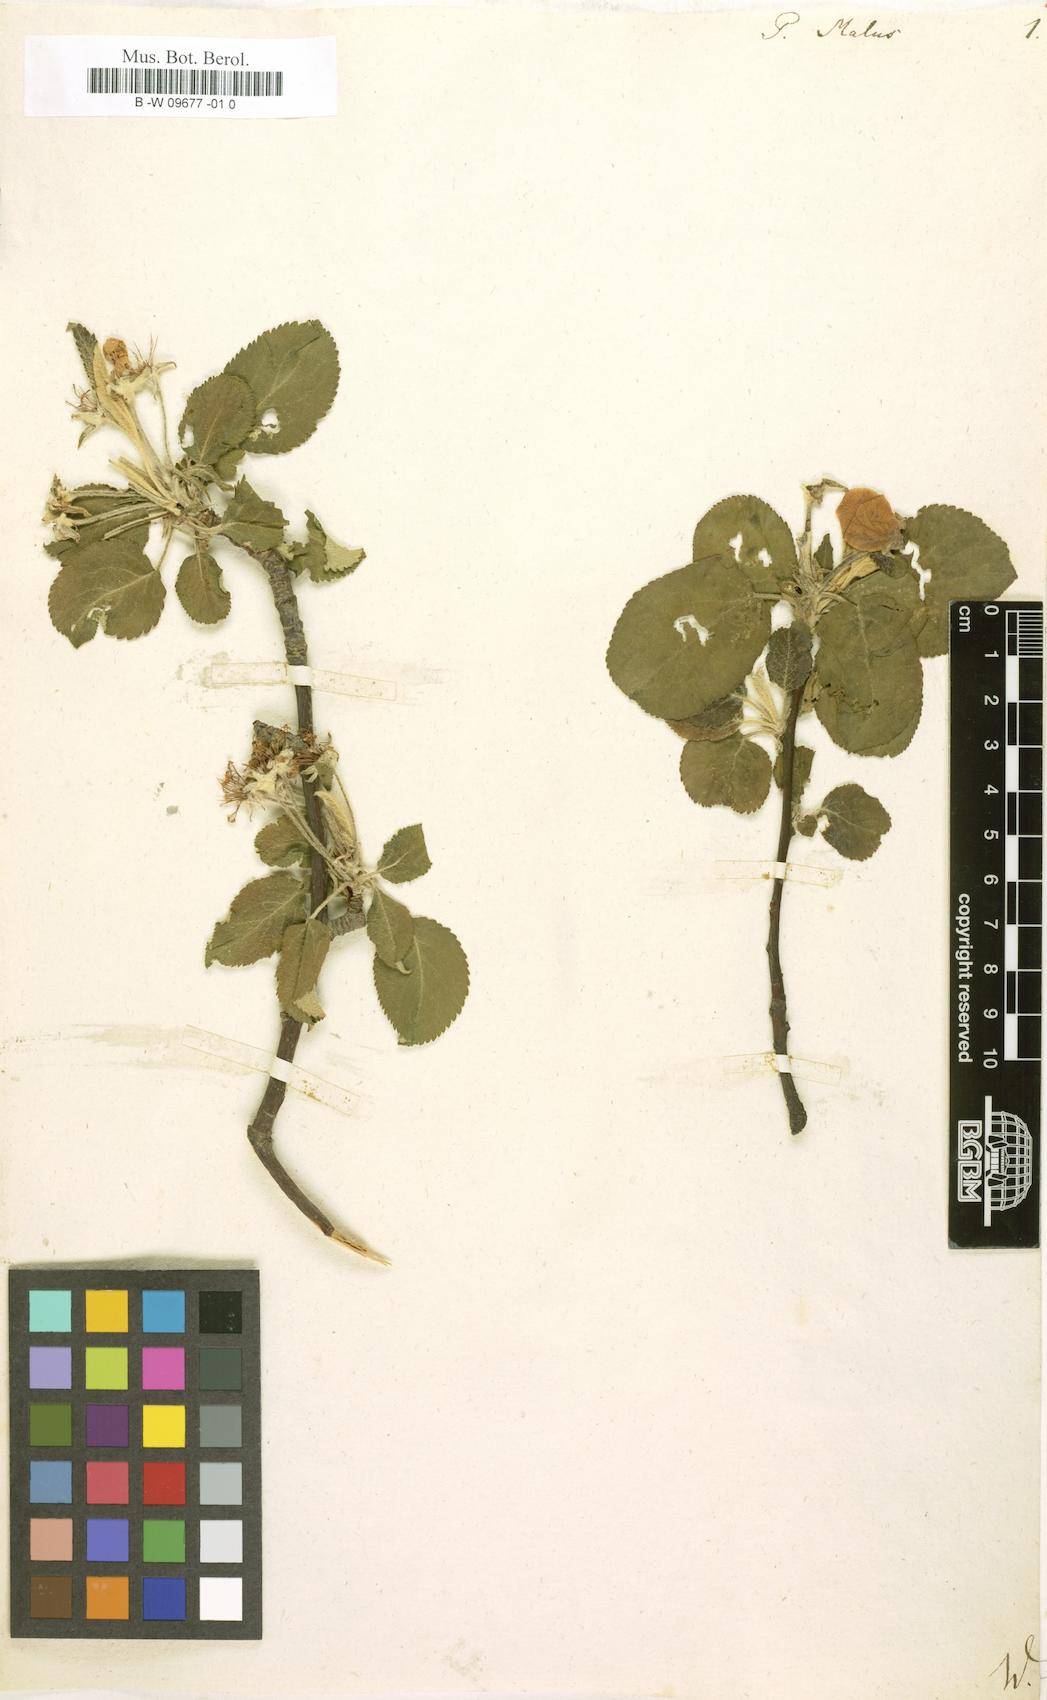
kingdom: Plantae
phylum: Tracheophyta
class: Magnoliopsida
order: Rosales
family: Rosaceae
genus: Malus
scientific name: Malus
